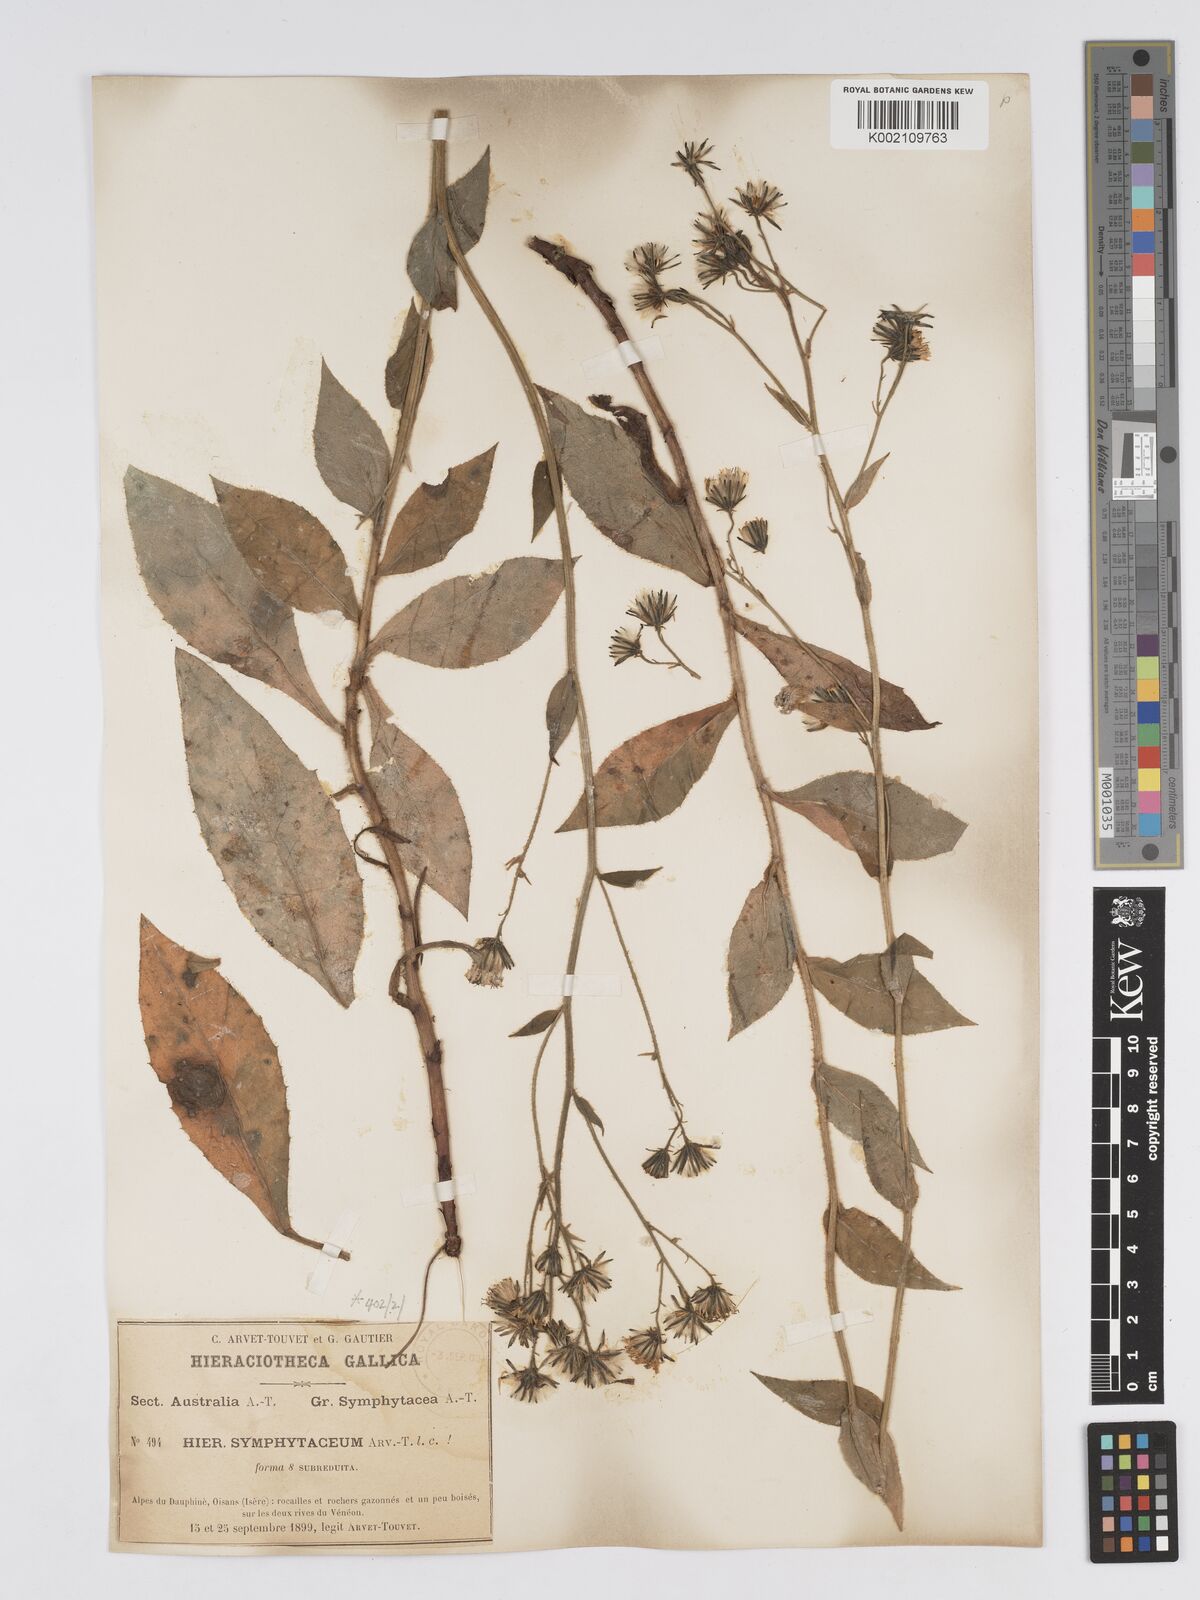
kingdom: Plantae
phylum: Tracheophyta
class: Magnoliopsida
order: Asterales
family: Asteraceae
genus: Hieracium
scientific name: Hieracium symphytaceum
